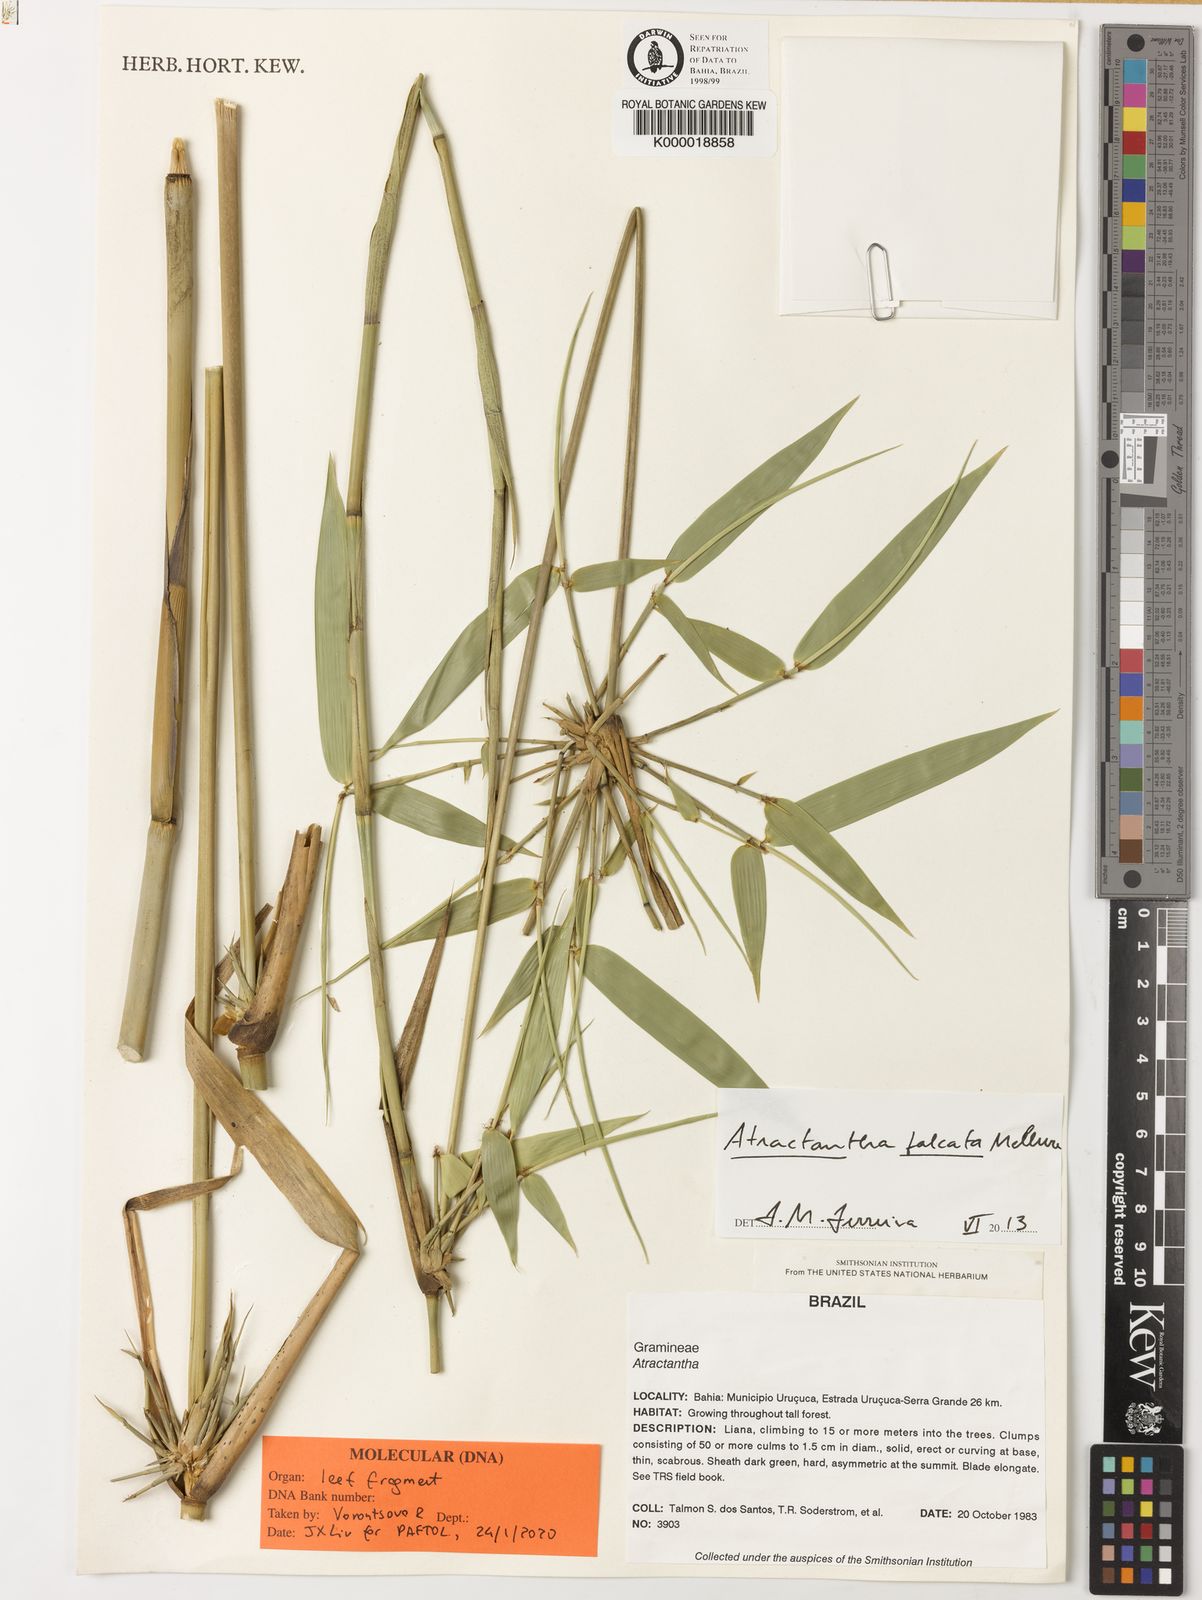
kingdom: Plantae
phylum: Tracheophyta
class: Liliopsida
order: Poales
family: Poaceae
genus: Atractantha
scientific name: Atractantha
